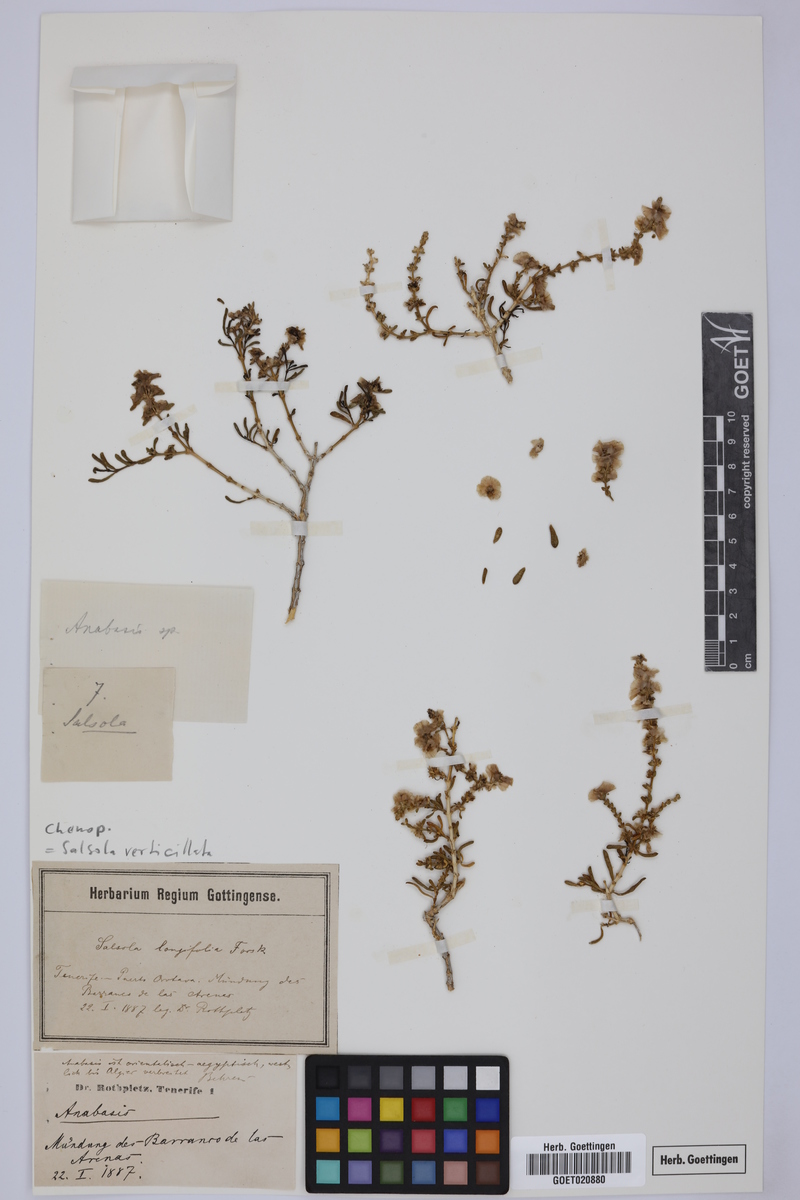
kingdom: Plantae
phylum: Tracheophyta
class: Magnoliopsida
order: Caryophyllales
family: Amaranthaceae
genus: Salsola
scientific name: Salsola verticillata
